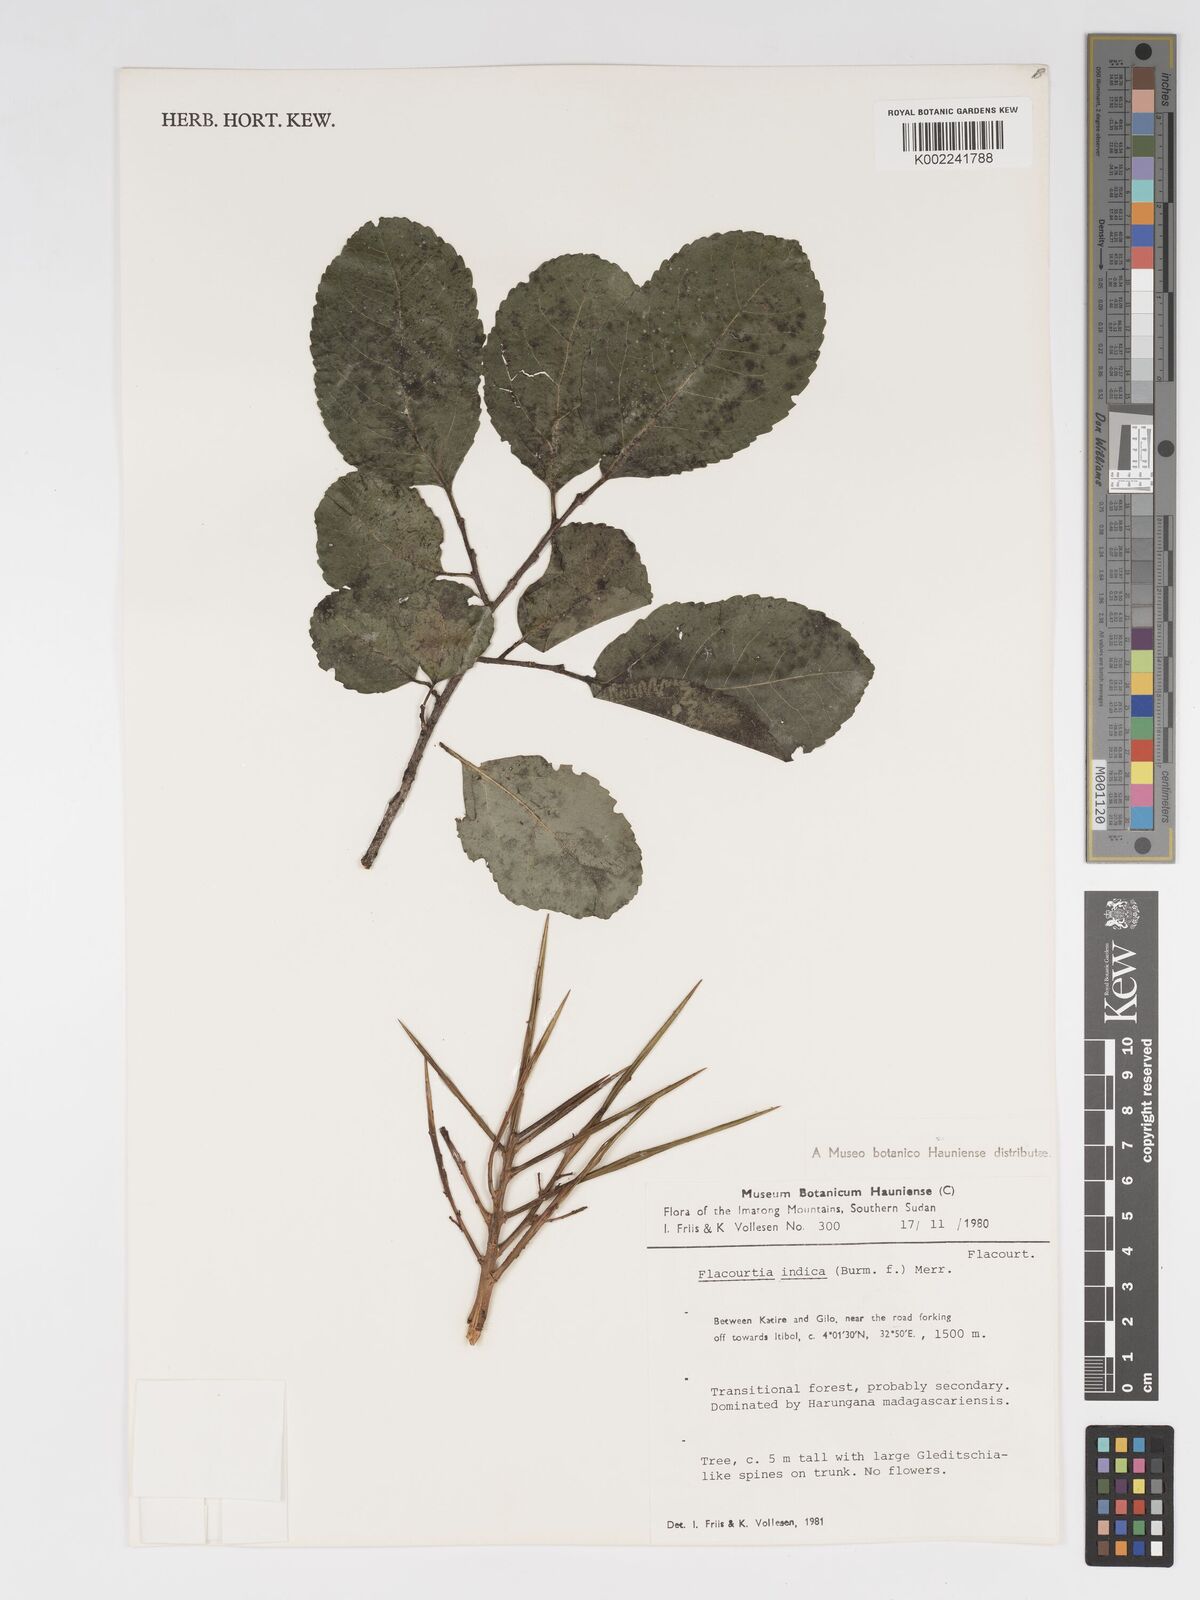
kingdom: Plantae
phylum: Tracheophyta
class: Magnoliopsida
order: Malpighiales
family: Salicaceae
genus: Flacourtia
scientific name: Flacourtia indica
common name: Governor's plum
